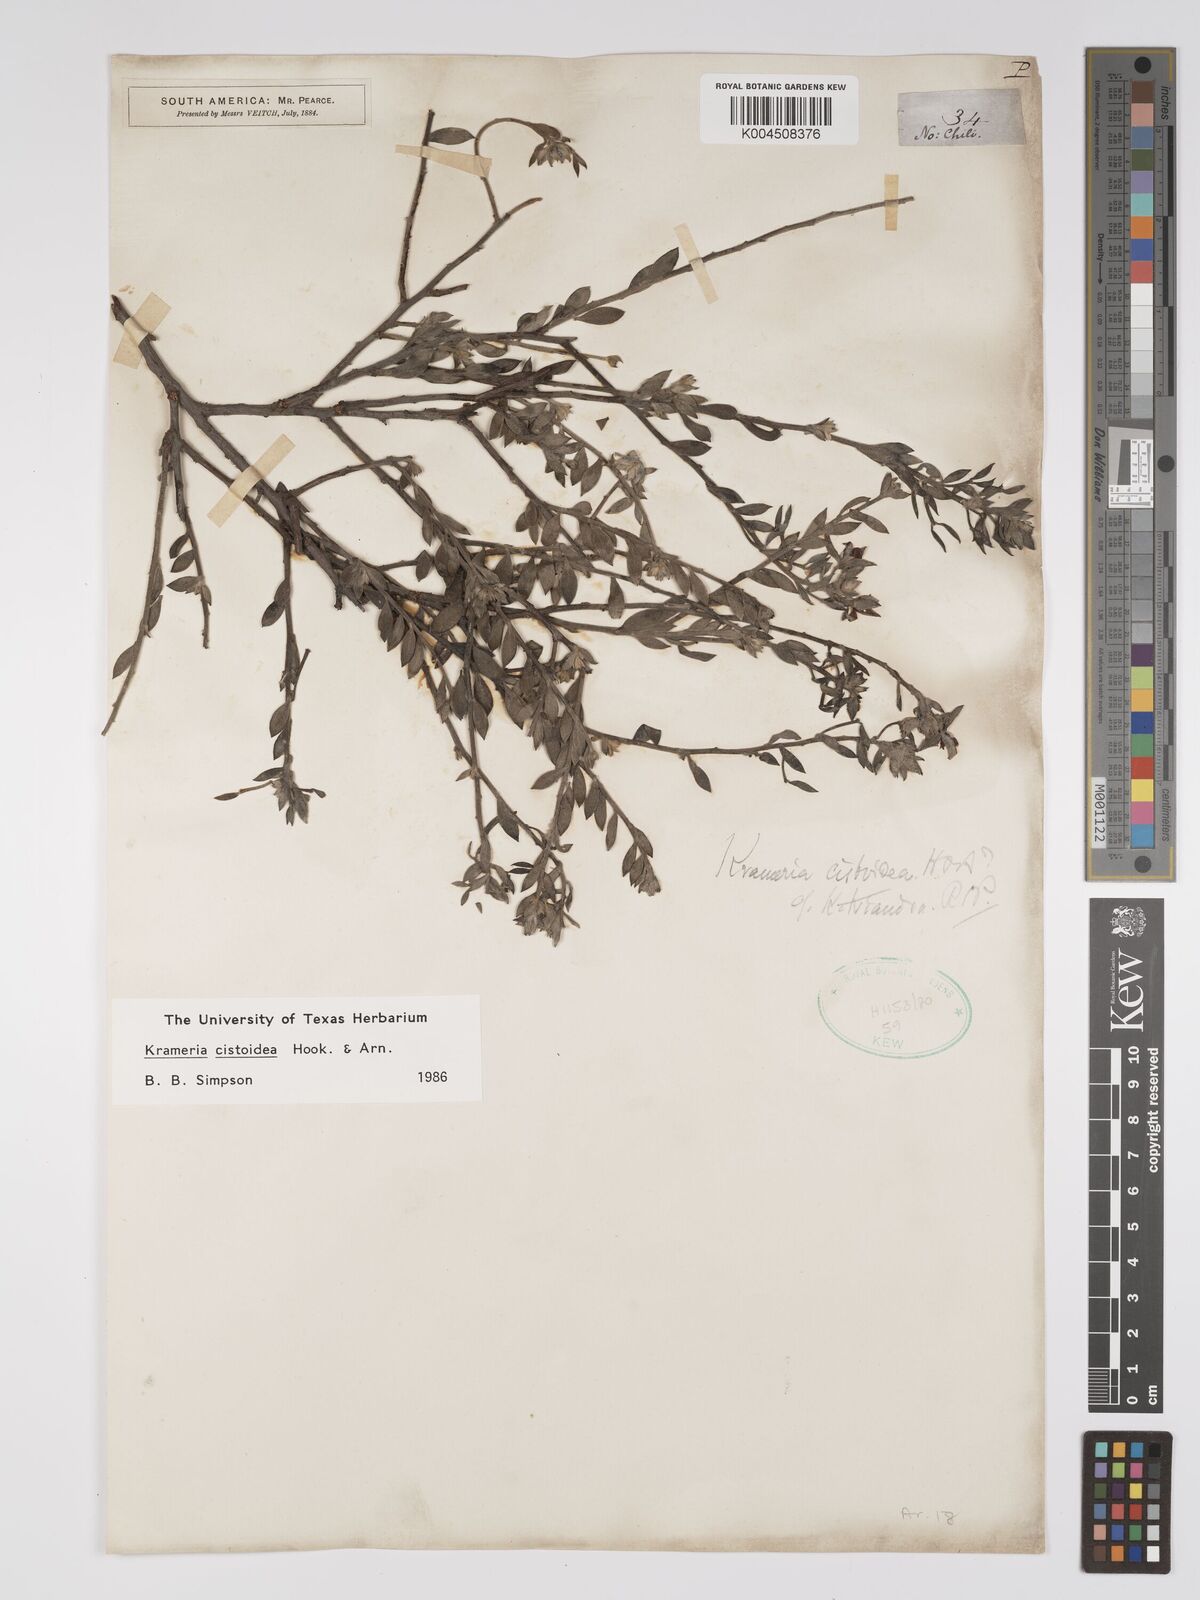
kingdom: Plantae
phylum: Tracheophyta
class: Magnoliopsida
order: Zygophyllales
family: Krameriaceae
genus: Krameria
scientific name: Krameria cistoidea
